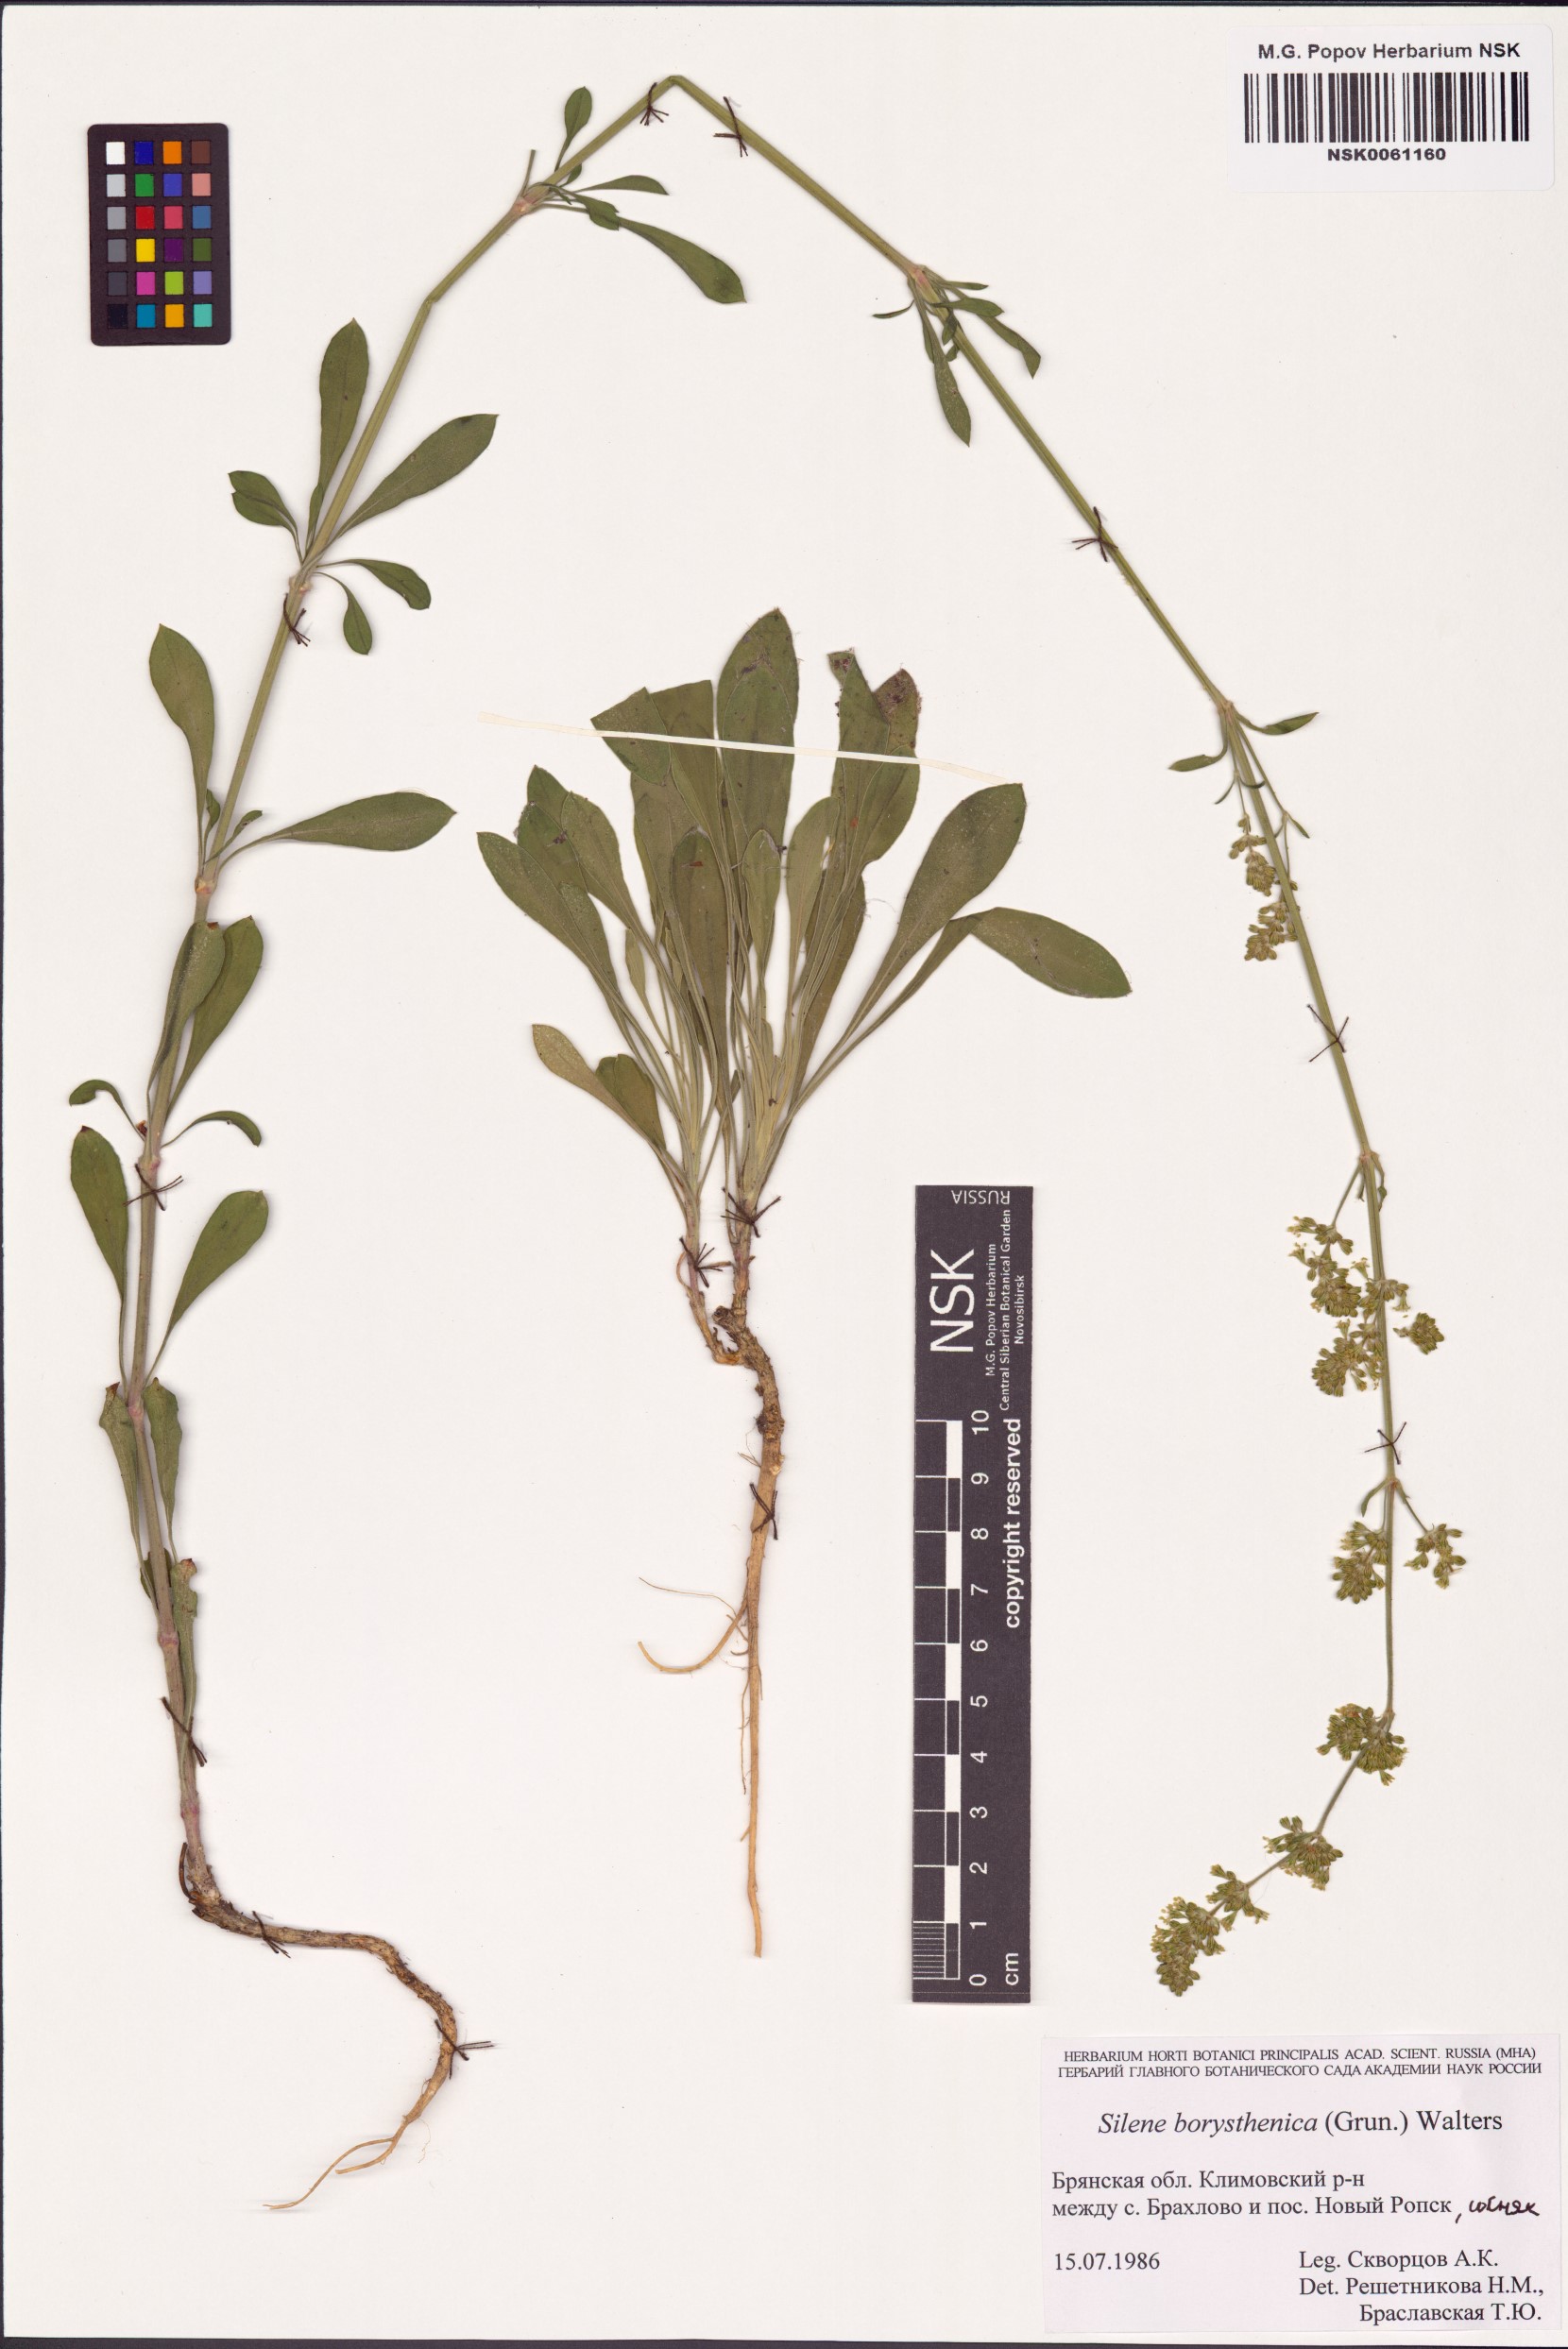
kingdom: Plantae
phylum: Tracheophyta
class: Magnoliopsida
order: Caryophyllales
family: Caryophyllaceae
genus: Silene
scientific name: Silene borysthenica
